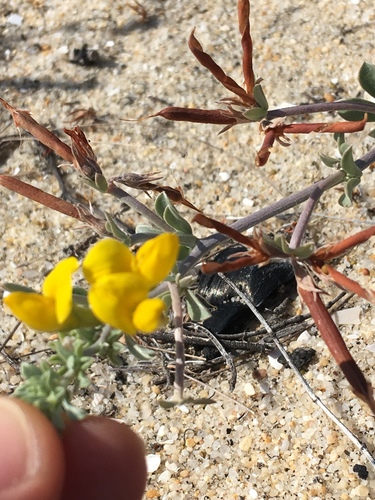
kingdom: Plantae
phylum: Tracheophyta
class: Magnoliopsida
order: Fabales
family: Fabaceae
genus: Lotus
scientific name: Lotus creticus
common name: Cretan bird's-foot trefoil
